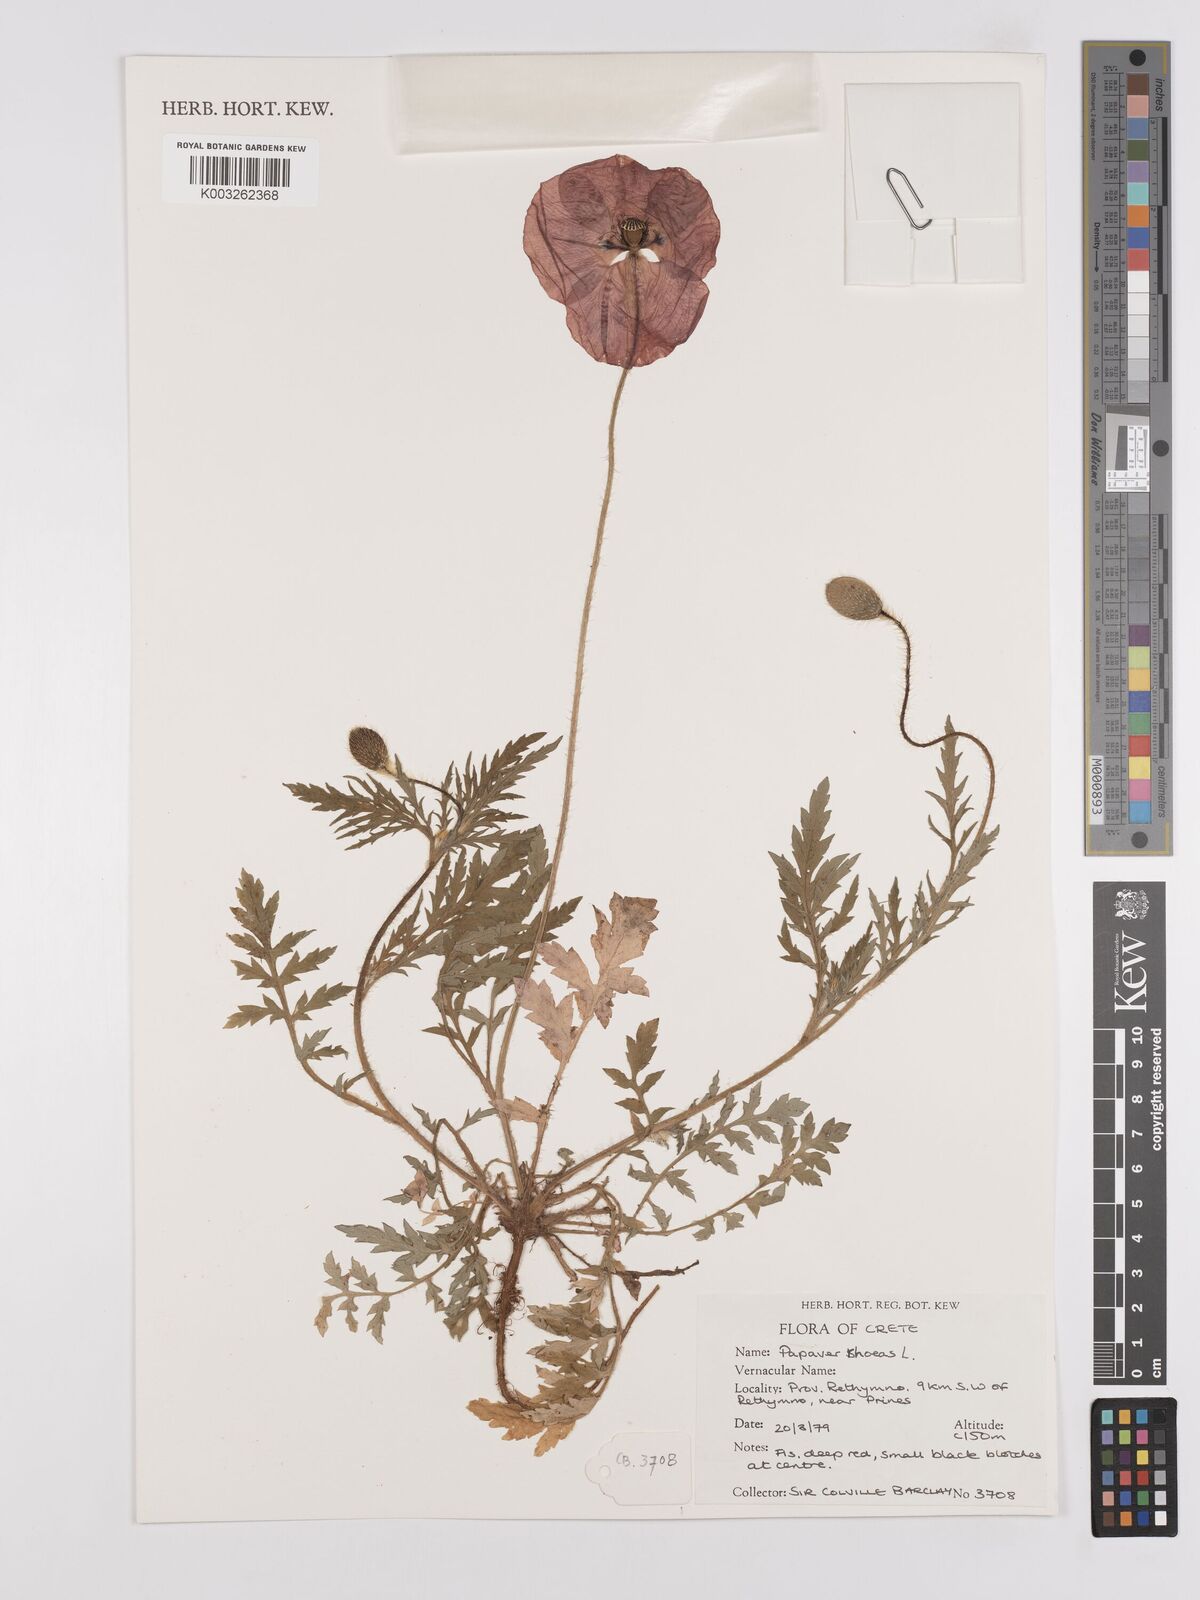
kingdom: Plantae
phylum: Tracheophyta
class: Magnoliopsida
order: Ranunculales
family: Papaveraceae
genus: Papaver
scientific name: Papaver rhoeas
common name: Corn poppy
